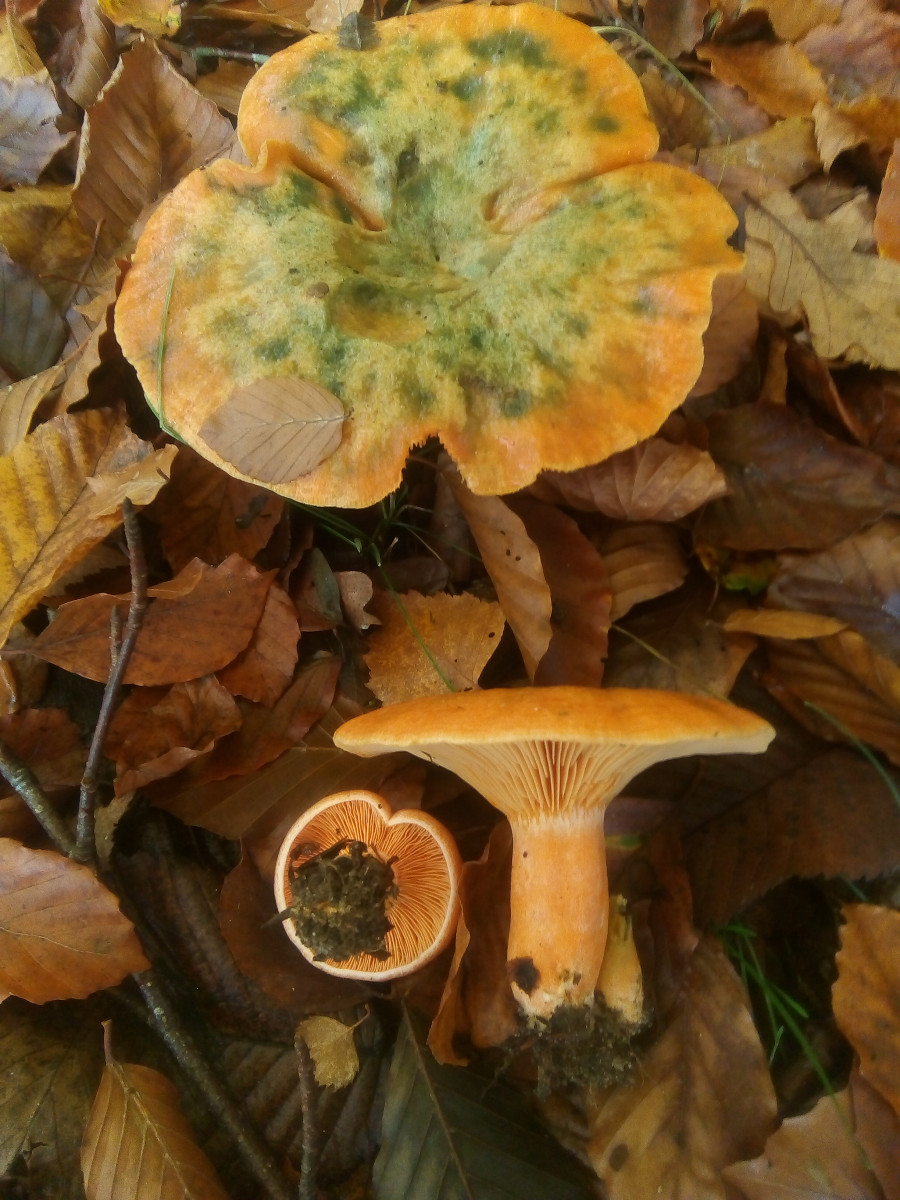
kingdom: Fungi
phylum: Basidiomycota
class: Agaricomycetes
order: Russulales
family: Russulaceae
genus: Lactarius
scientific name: Lactarius deterrimus
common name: gran-mælkehat
